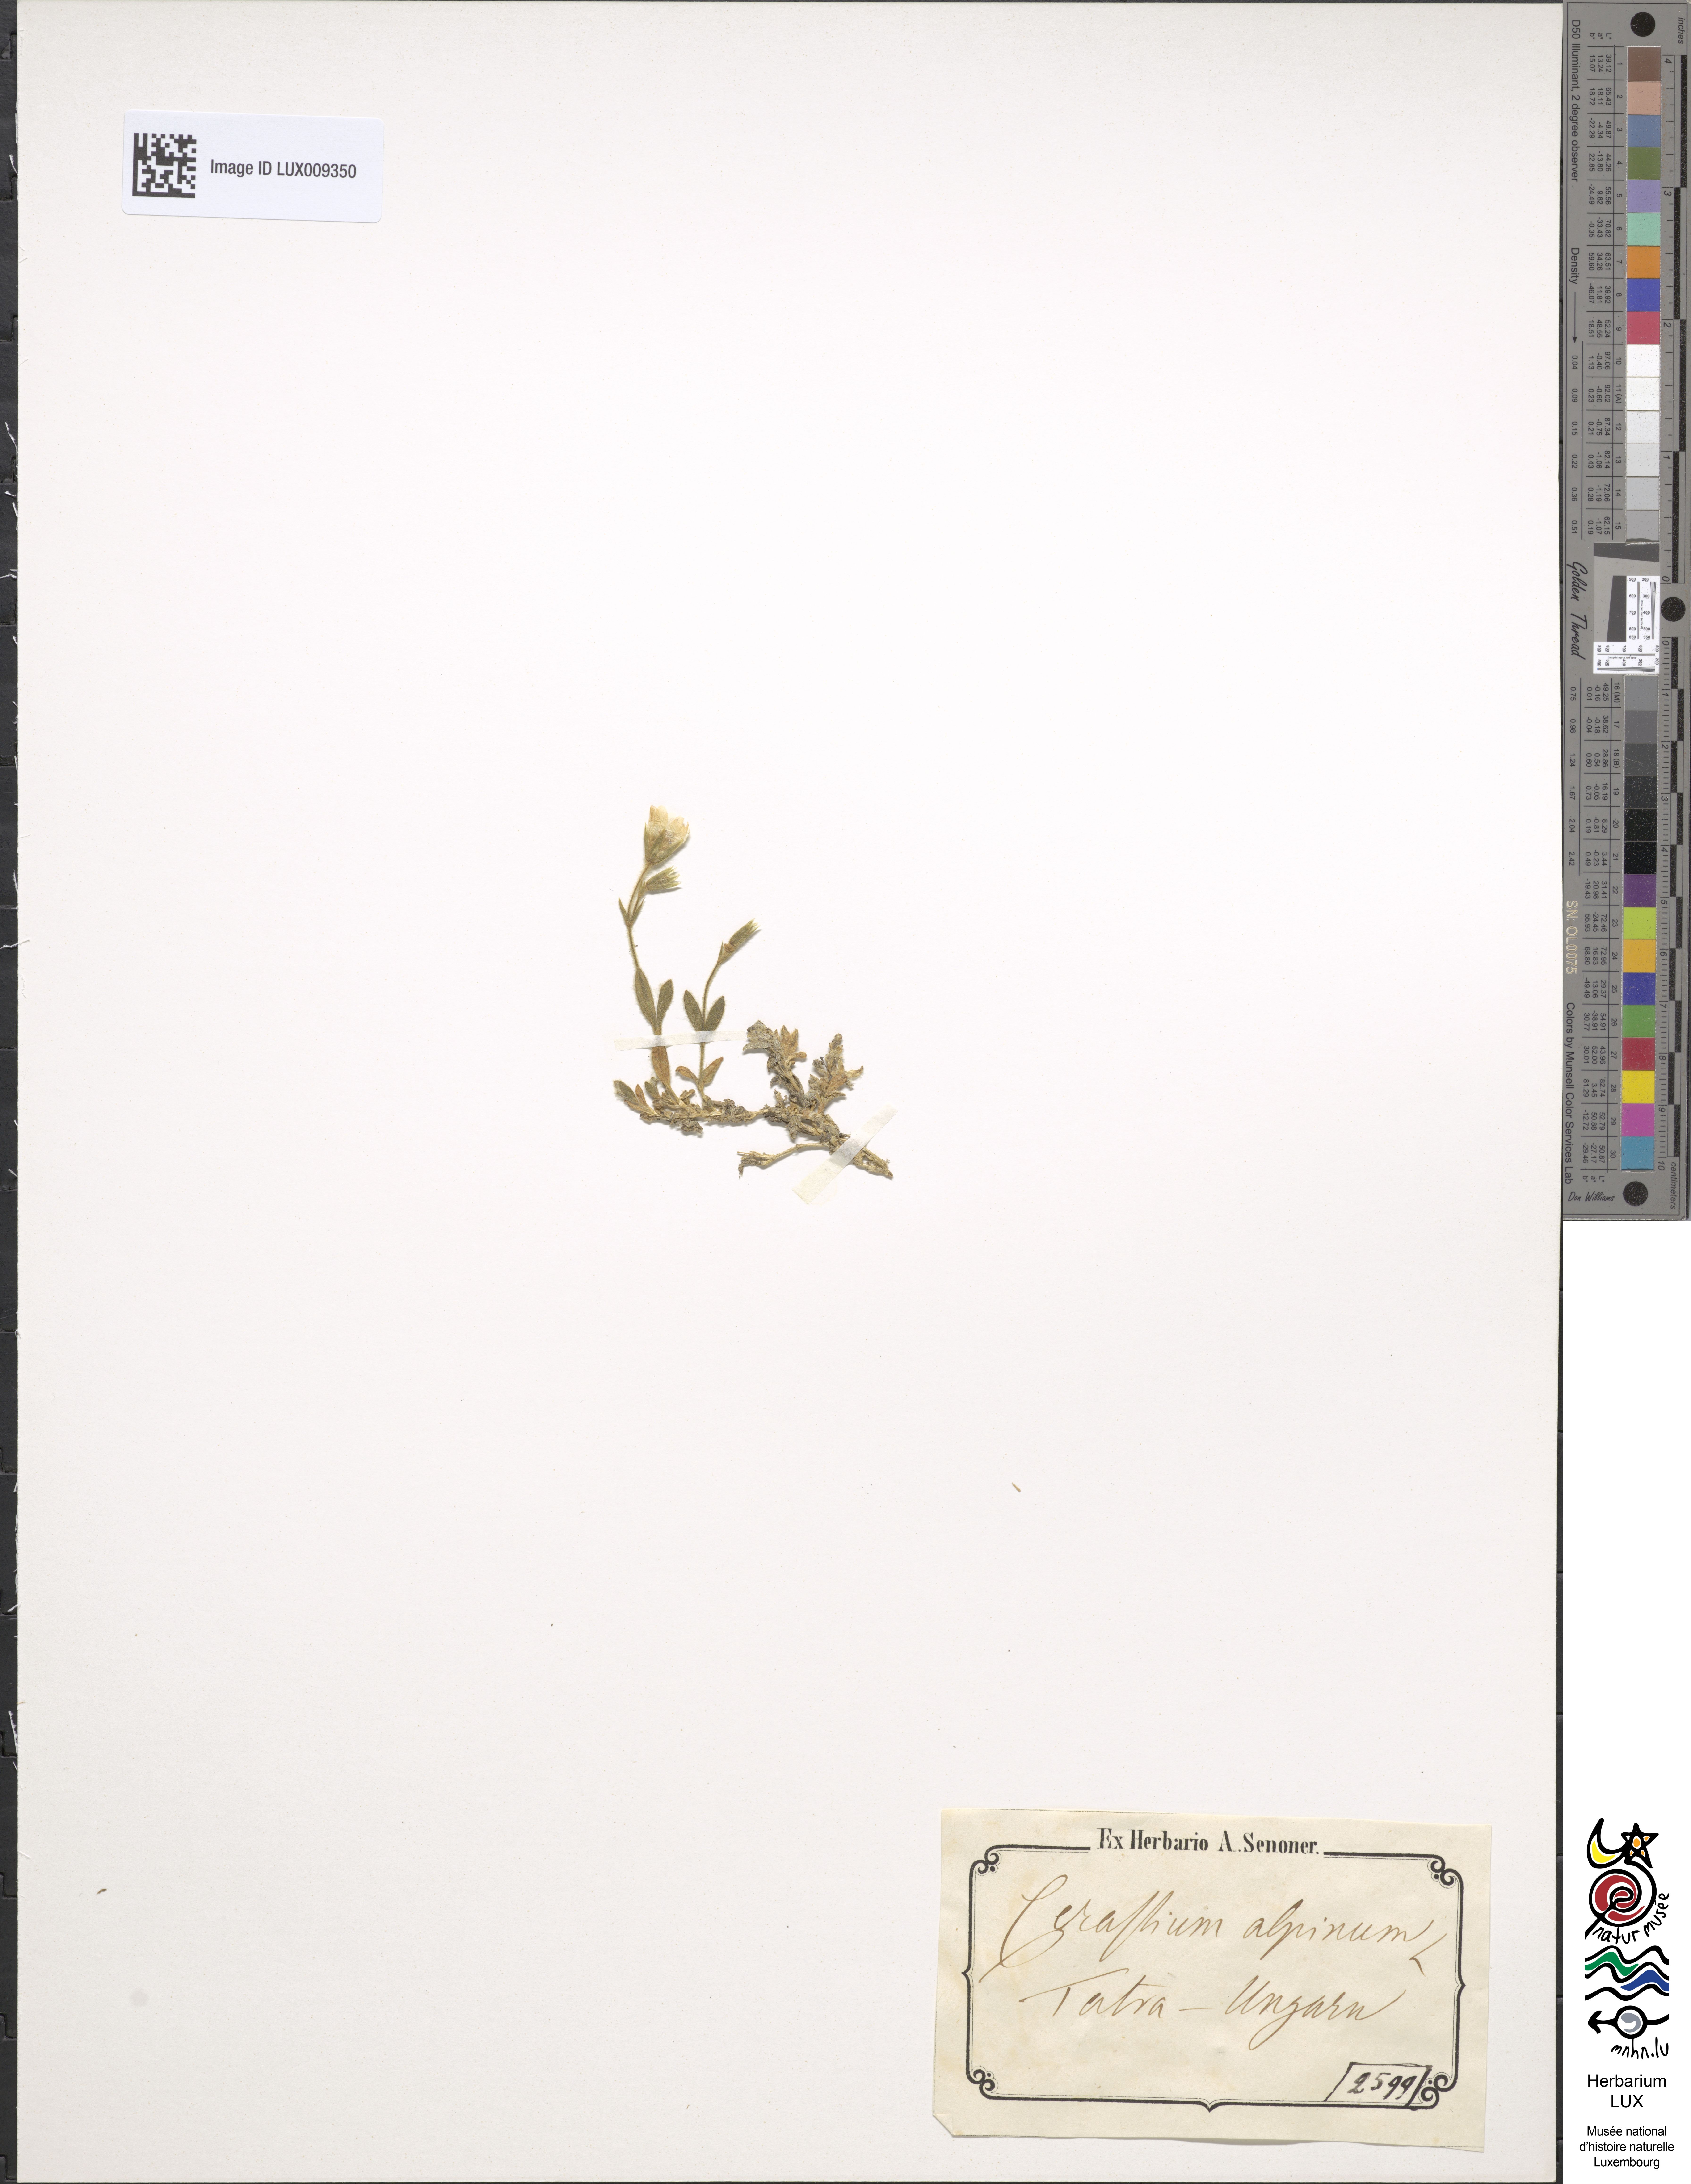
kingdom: Plantae
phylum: Tracheophyta
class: Magnoliopsida
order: Caryophyllales
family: Caryophyllaceae
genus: Cerastium
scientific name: Cerastium alpinum
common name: Alpine mouse-ear
